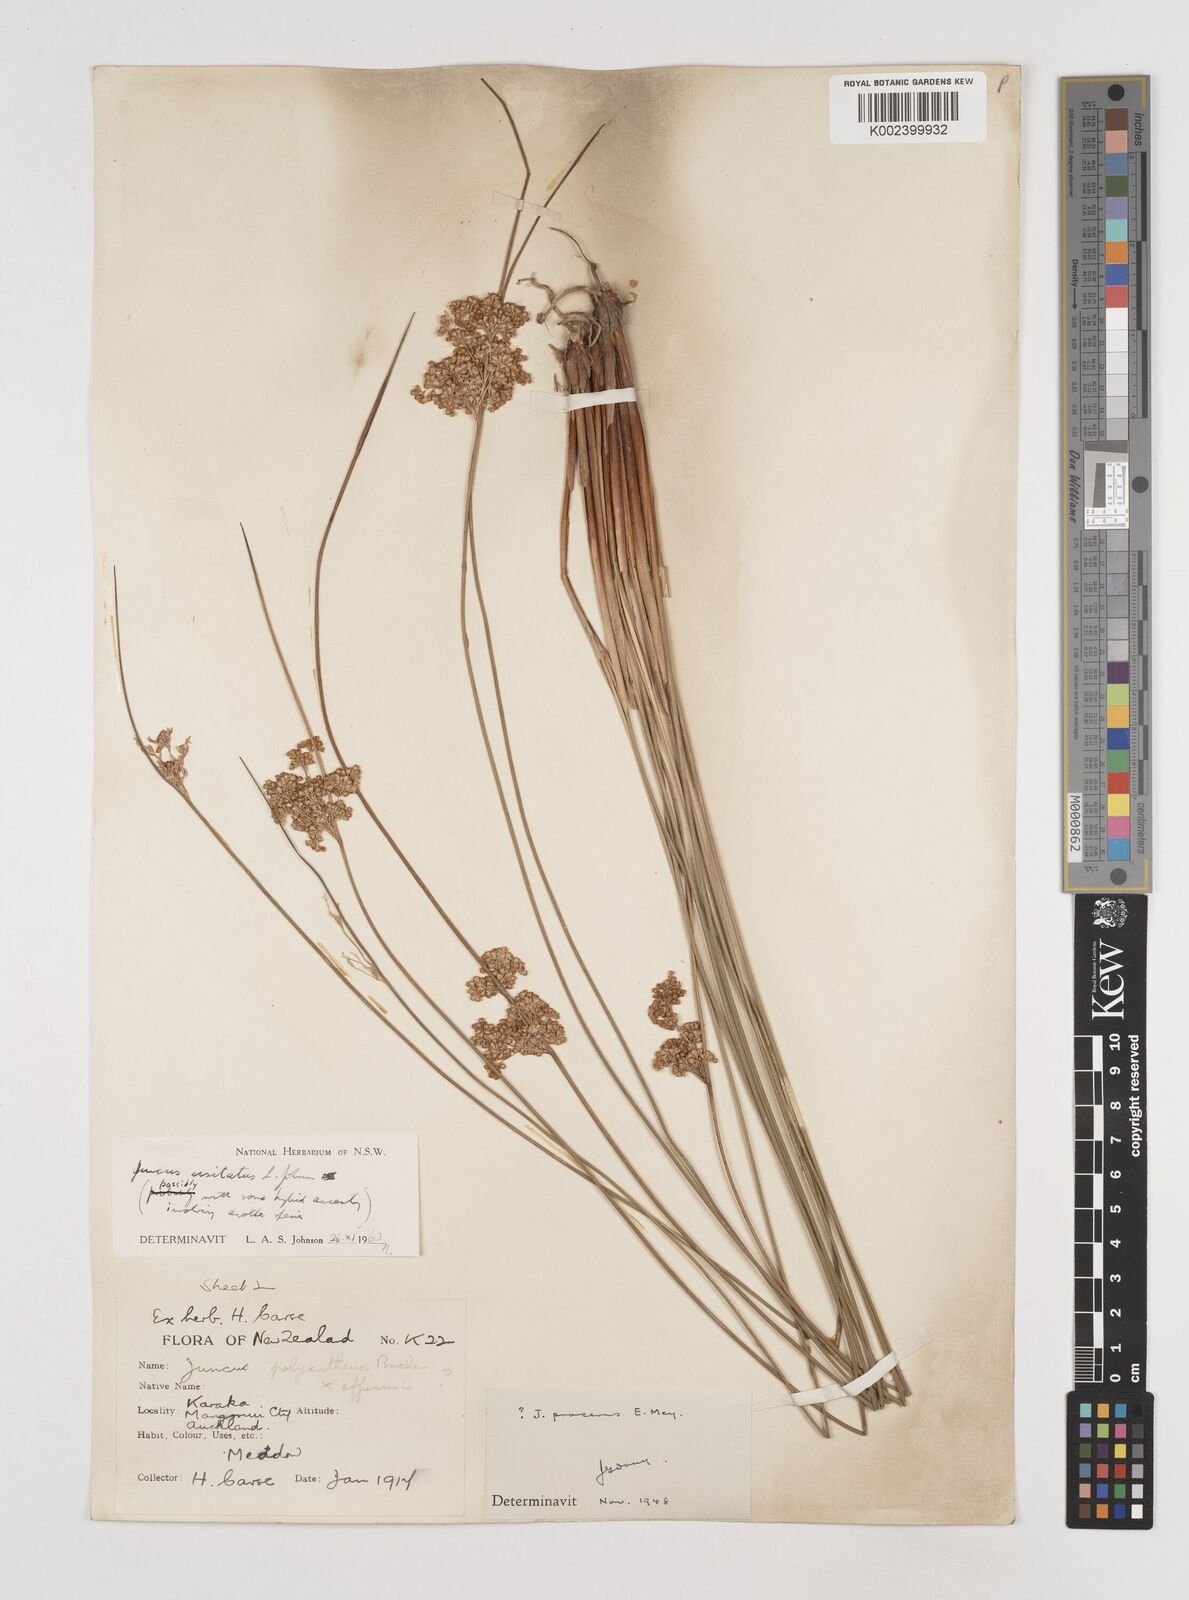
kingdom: Plantae
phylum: Tracheophyta
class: Liliopsida
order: Poales
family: Juncaceae
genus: Juncus
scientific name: Juncus usitatus
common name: Rush
